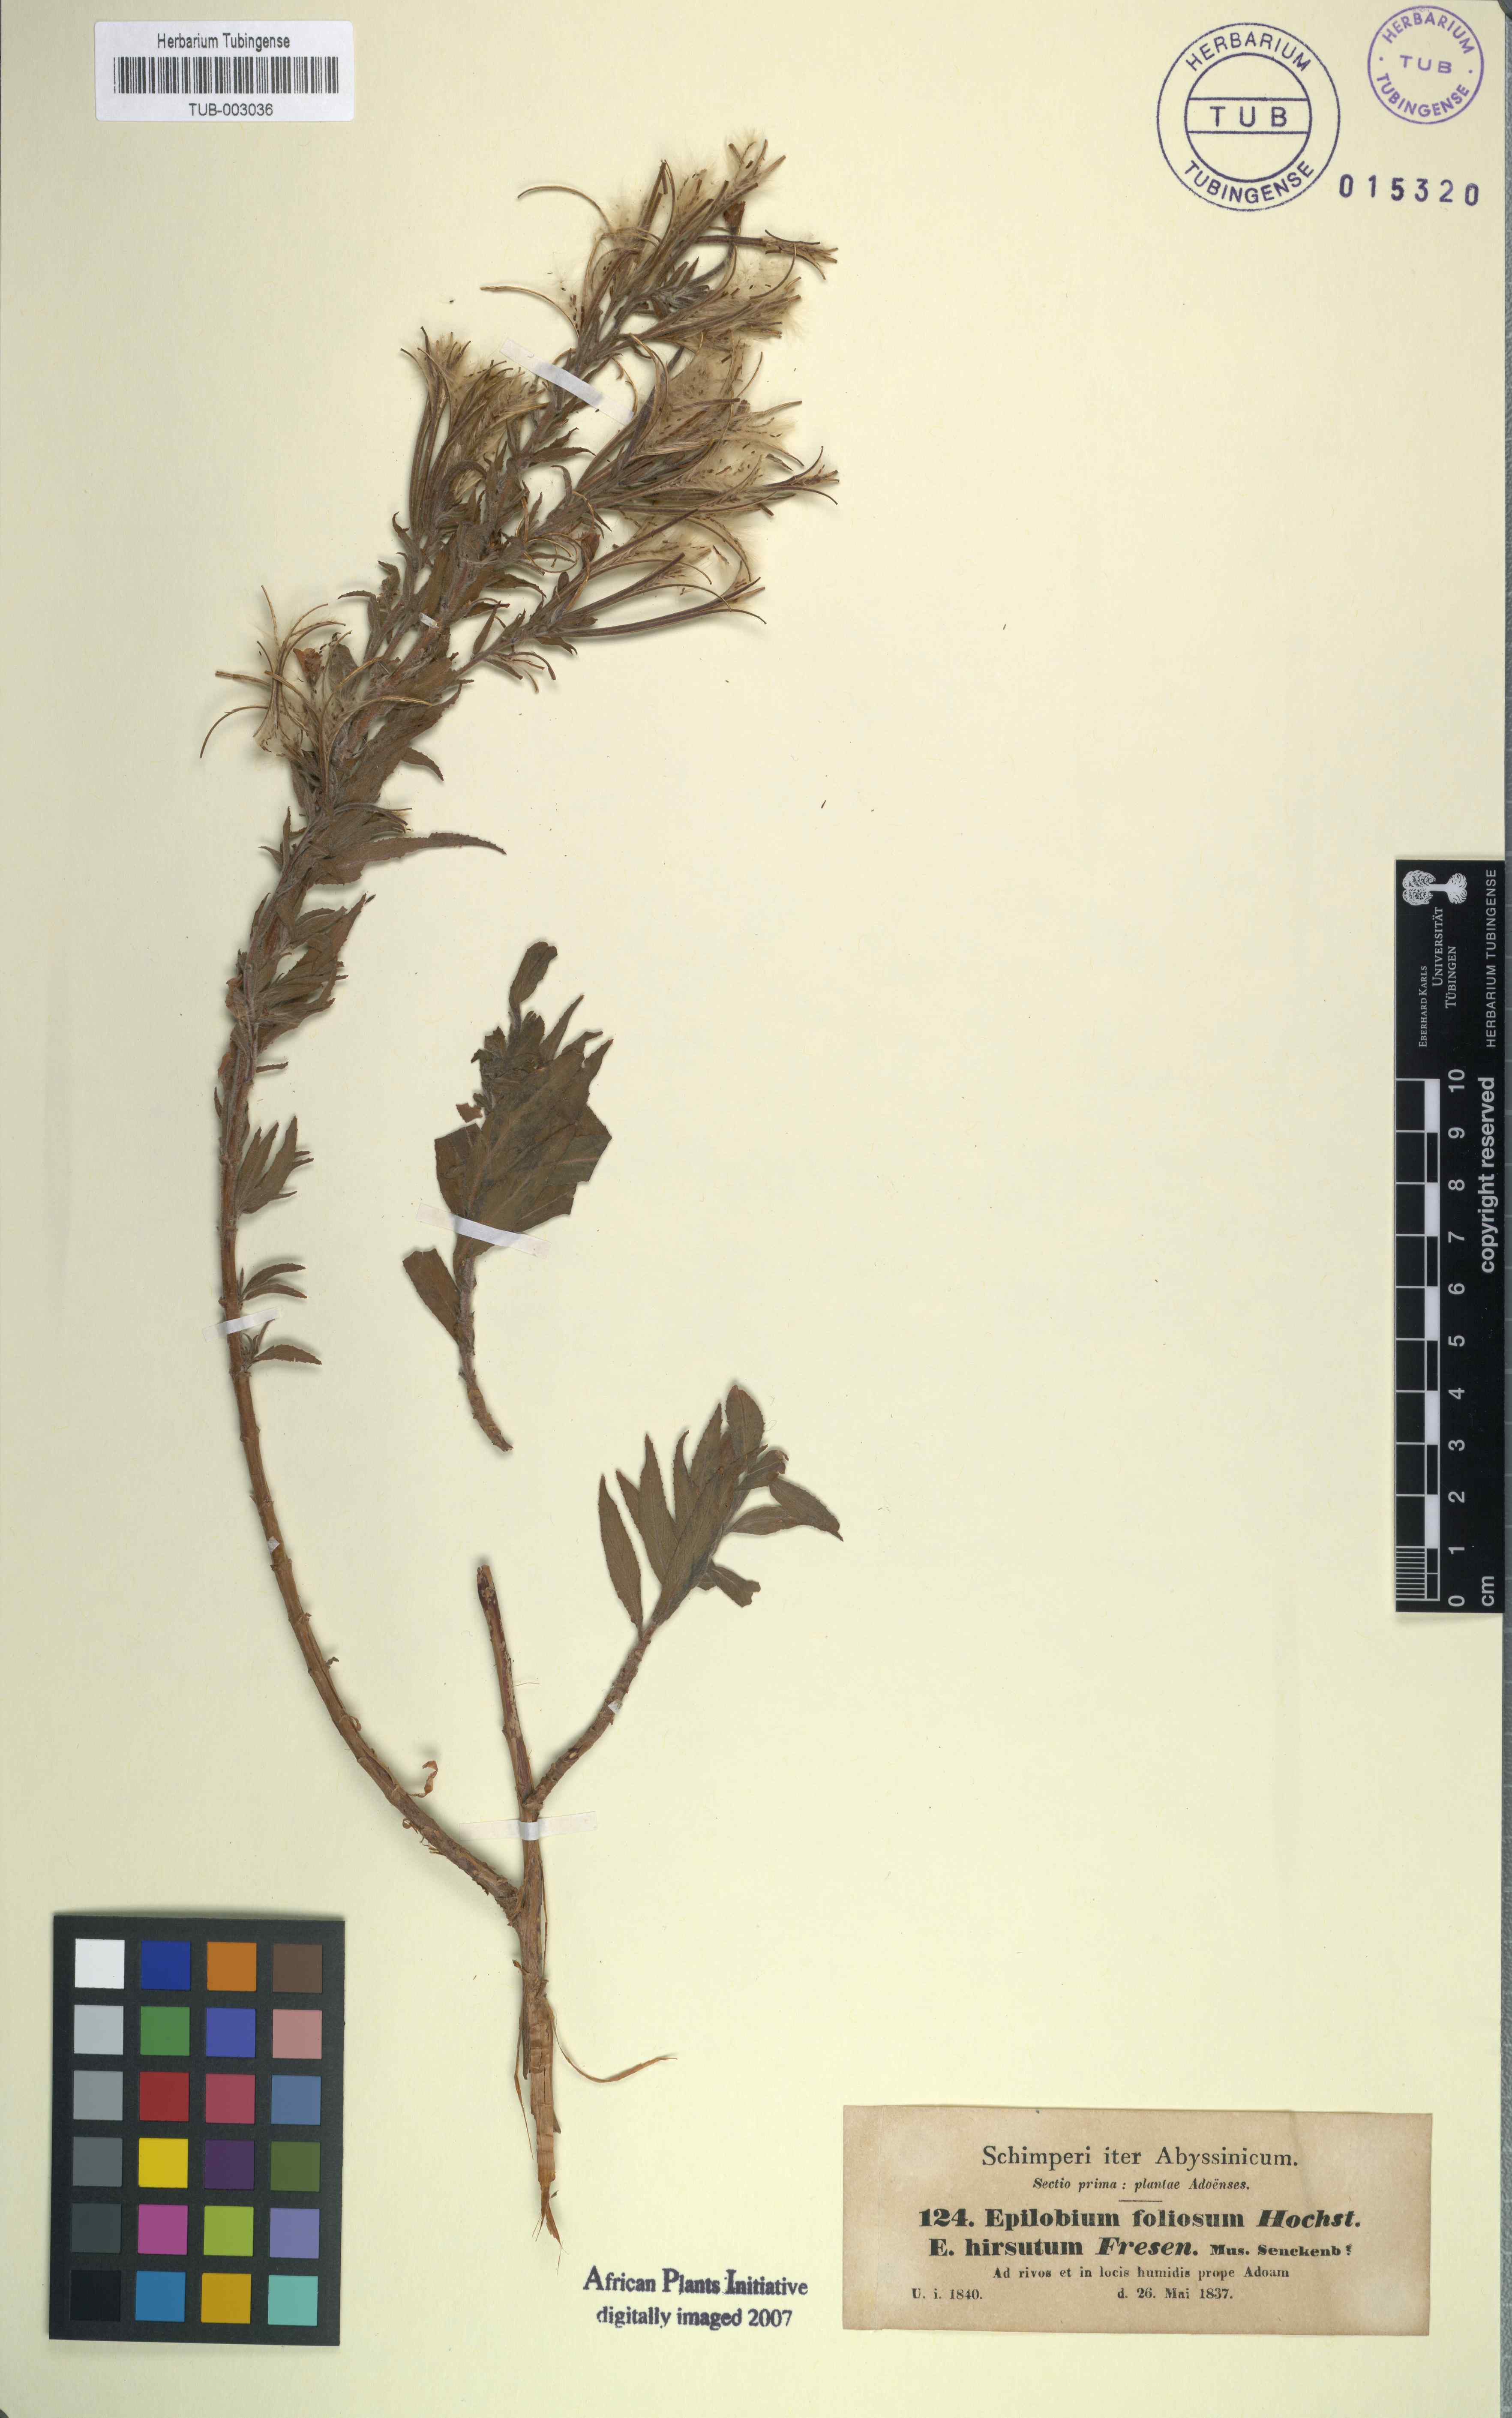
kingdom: Plantae
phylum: Tracheophyta
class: Magnoliopsida
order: Myrtales
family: Onagraceae
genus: Epilobium
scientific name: Epilobium hirsutum
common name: Great willowherb
